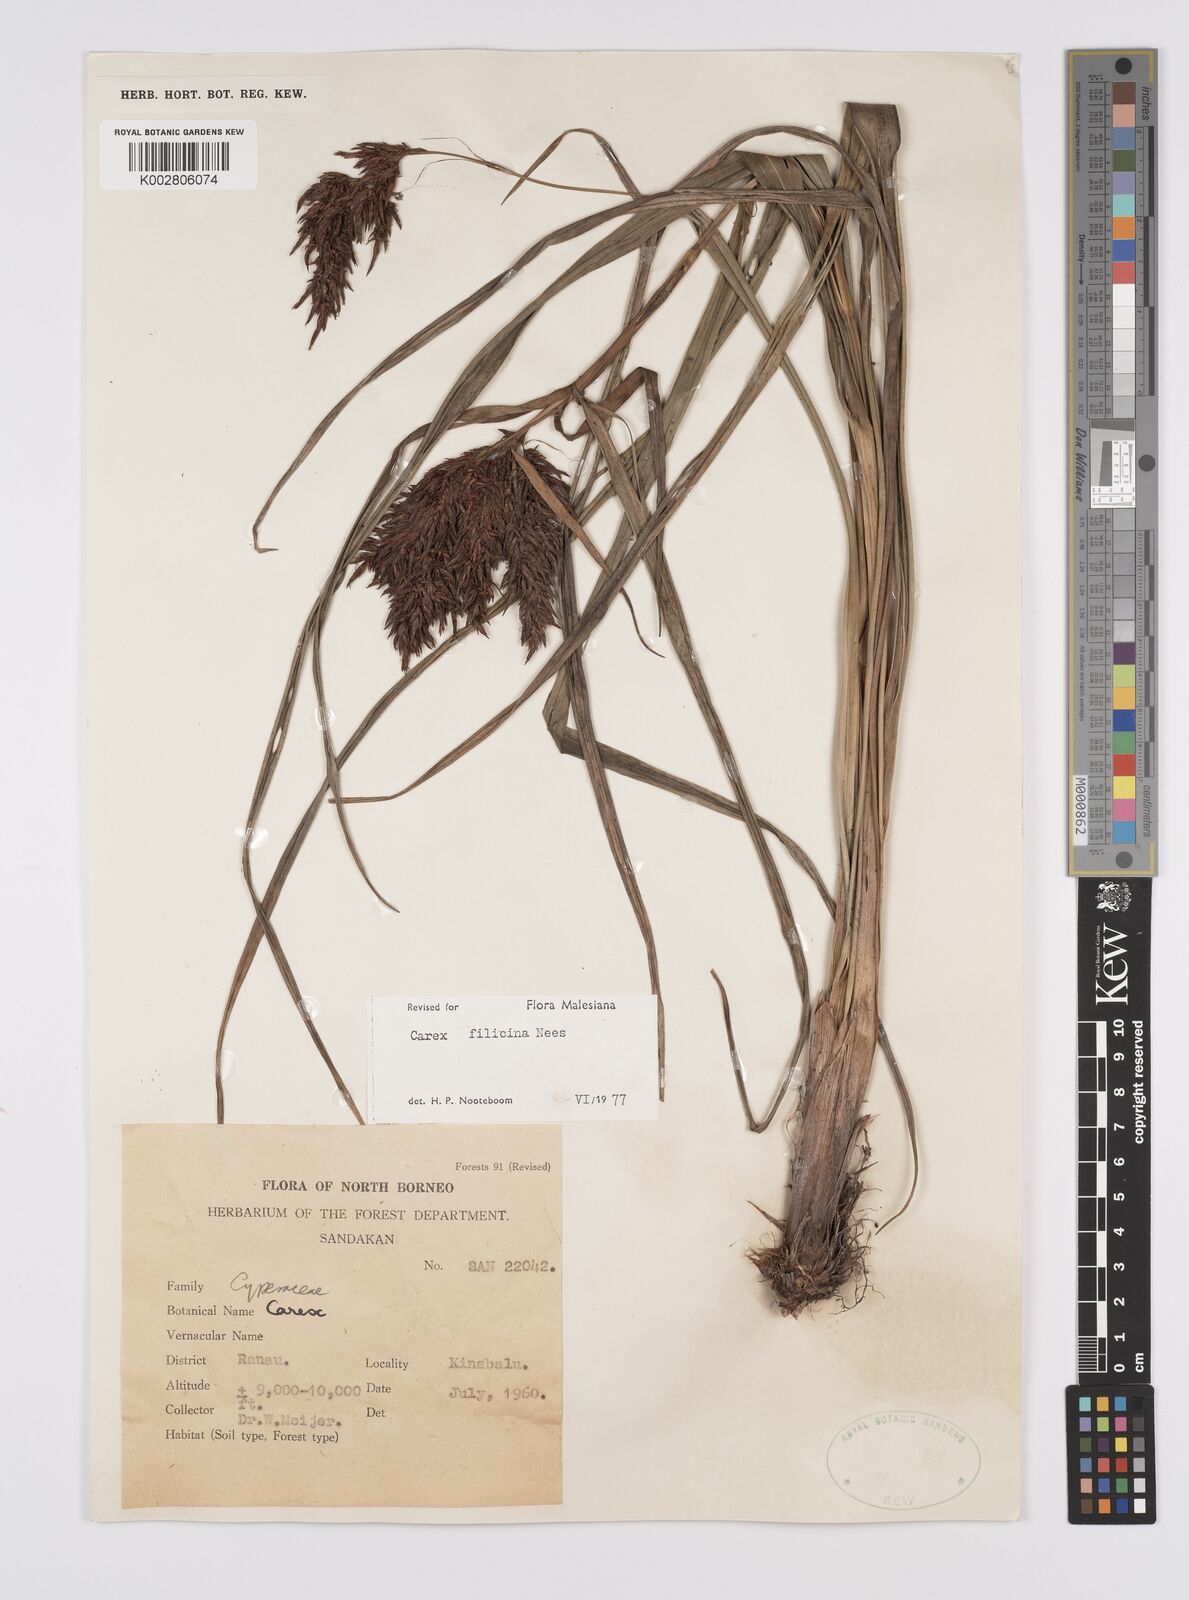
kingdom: Plantae
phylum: Tracheophyta
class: Liliopsida
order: Poales
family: Cyperaceae
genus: Carex
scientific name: Carex filicina
